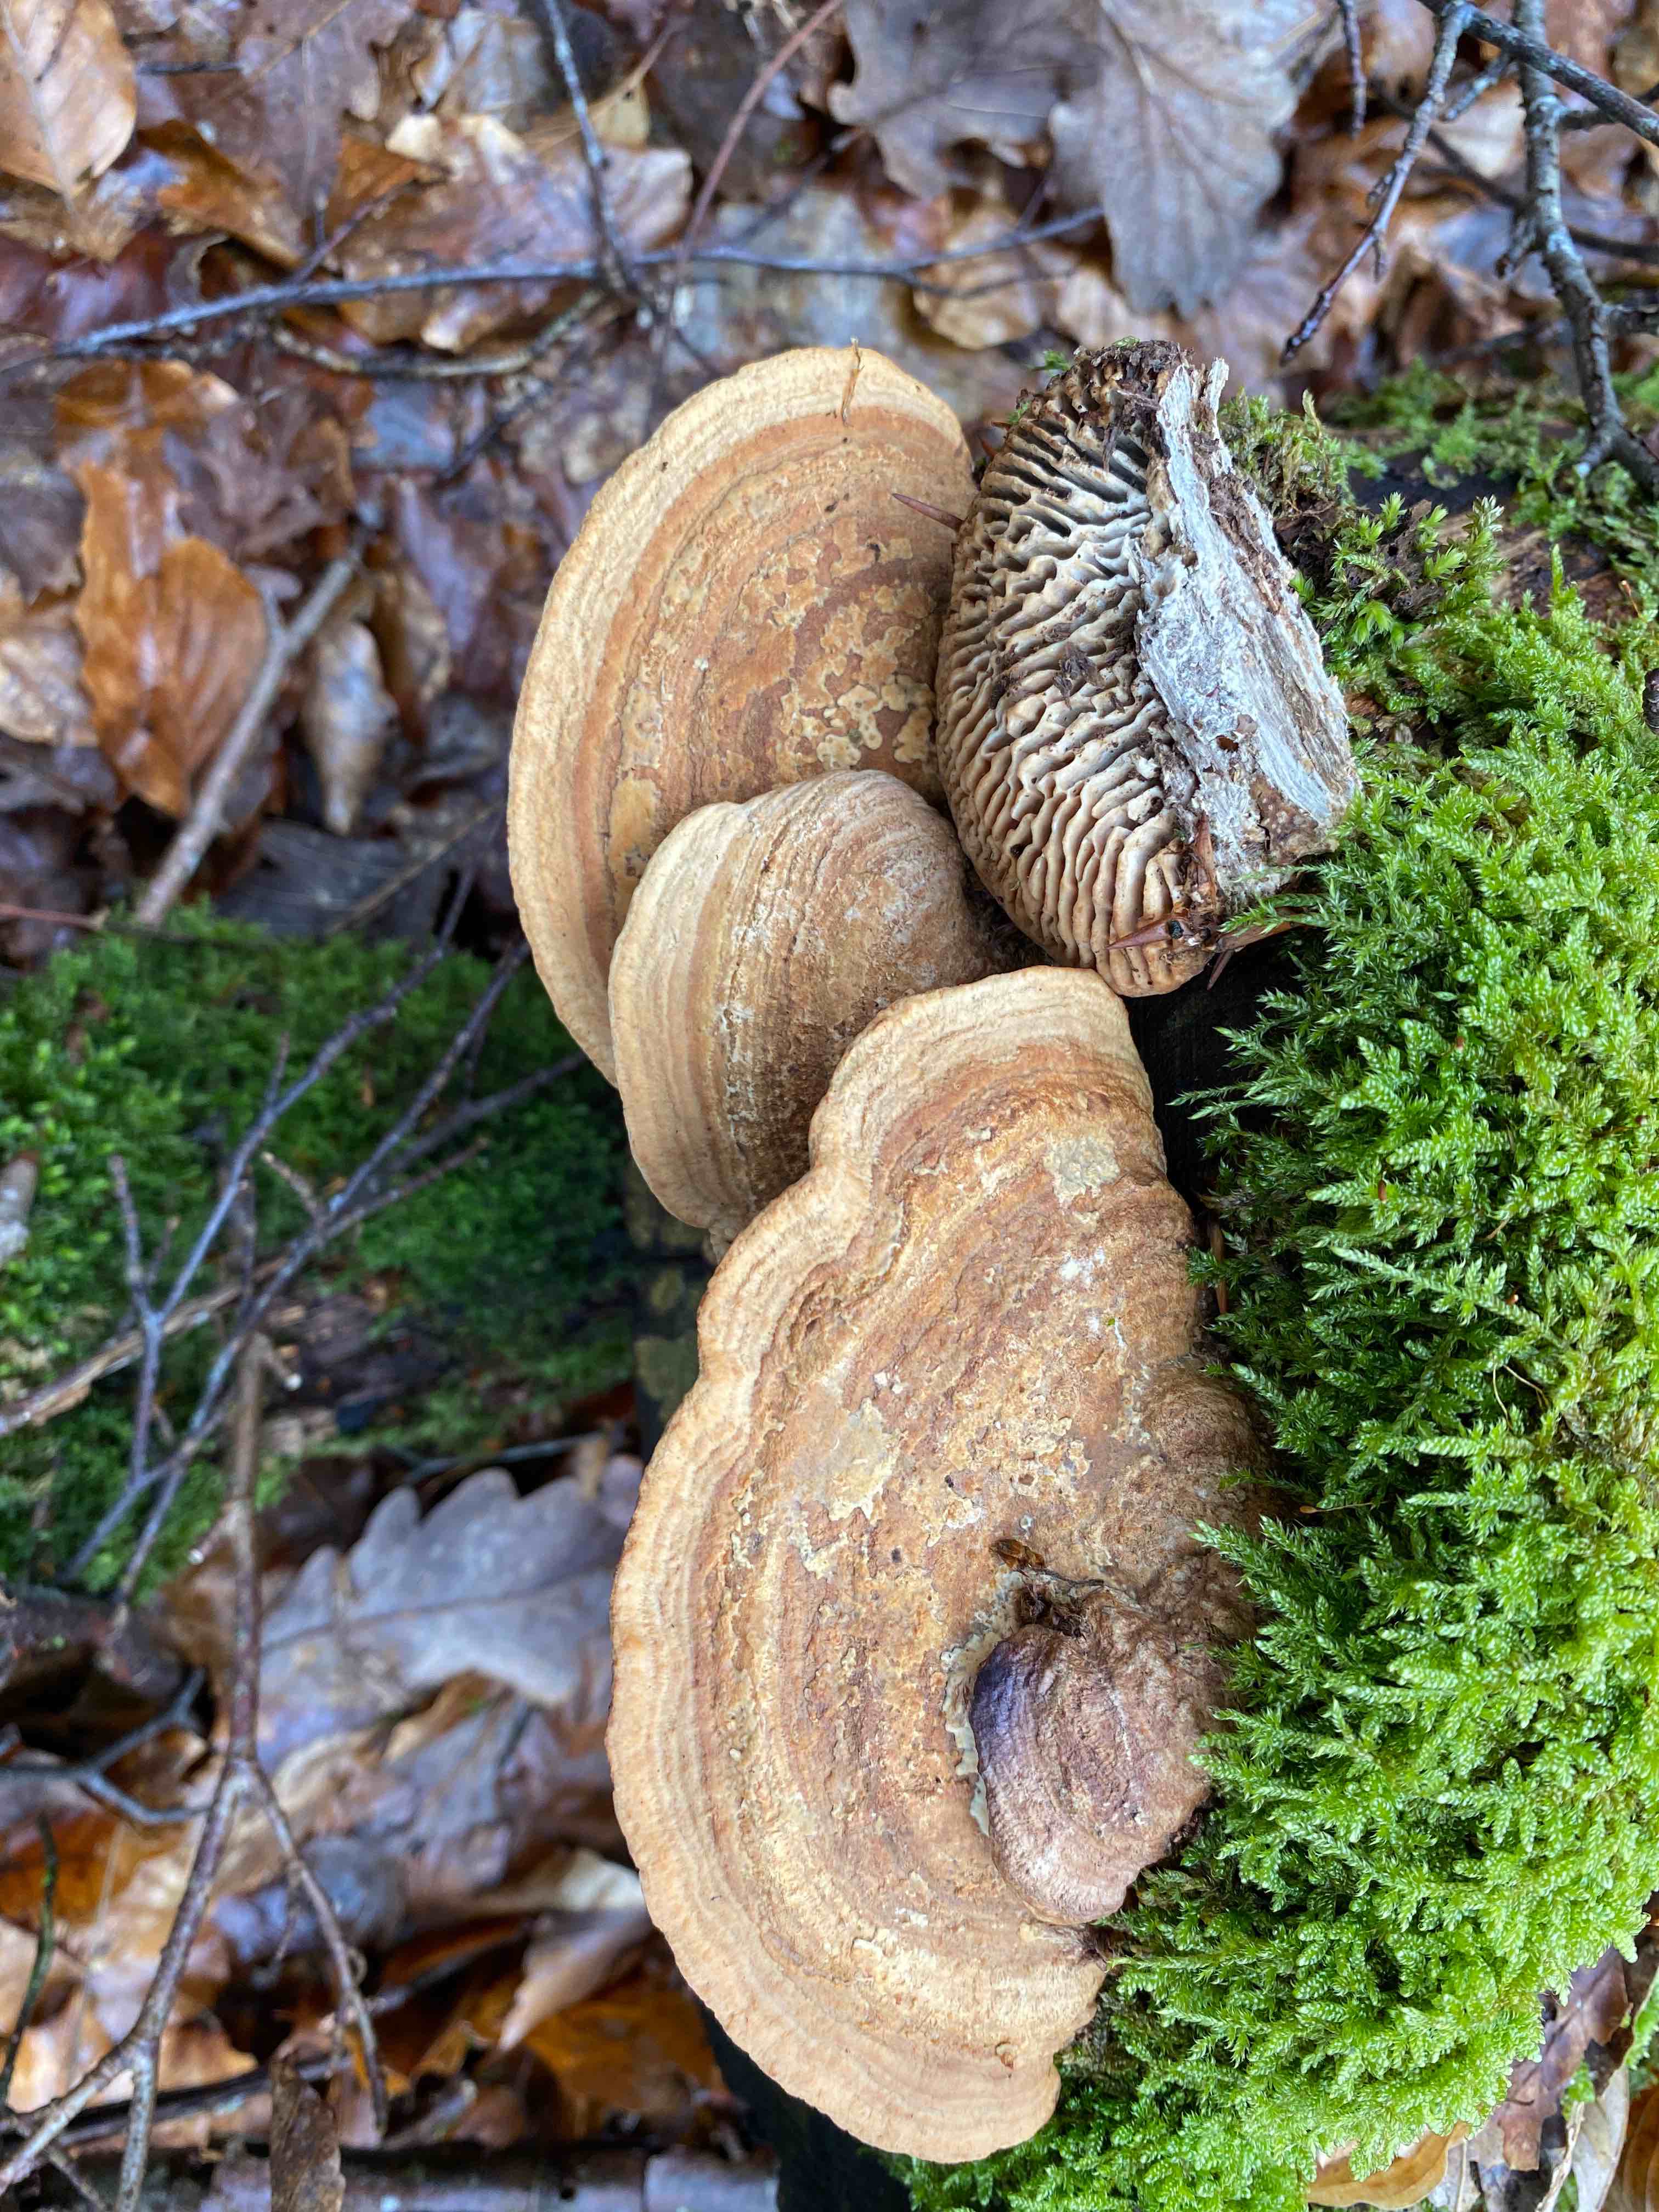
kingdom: Fungi
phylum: Basidiomycota
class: Agaricomycetes
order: Polyporales
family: Fomitopsidaceae
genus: Daedalea
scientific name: Daedalea quercina
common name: ege-labyrintsvamp
